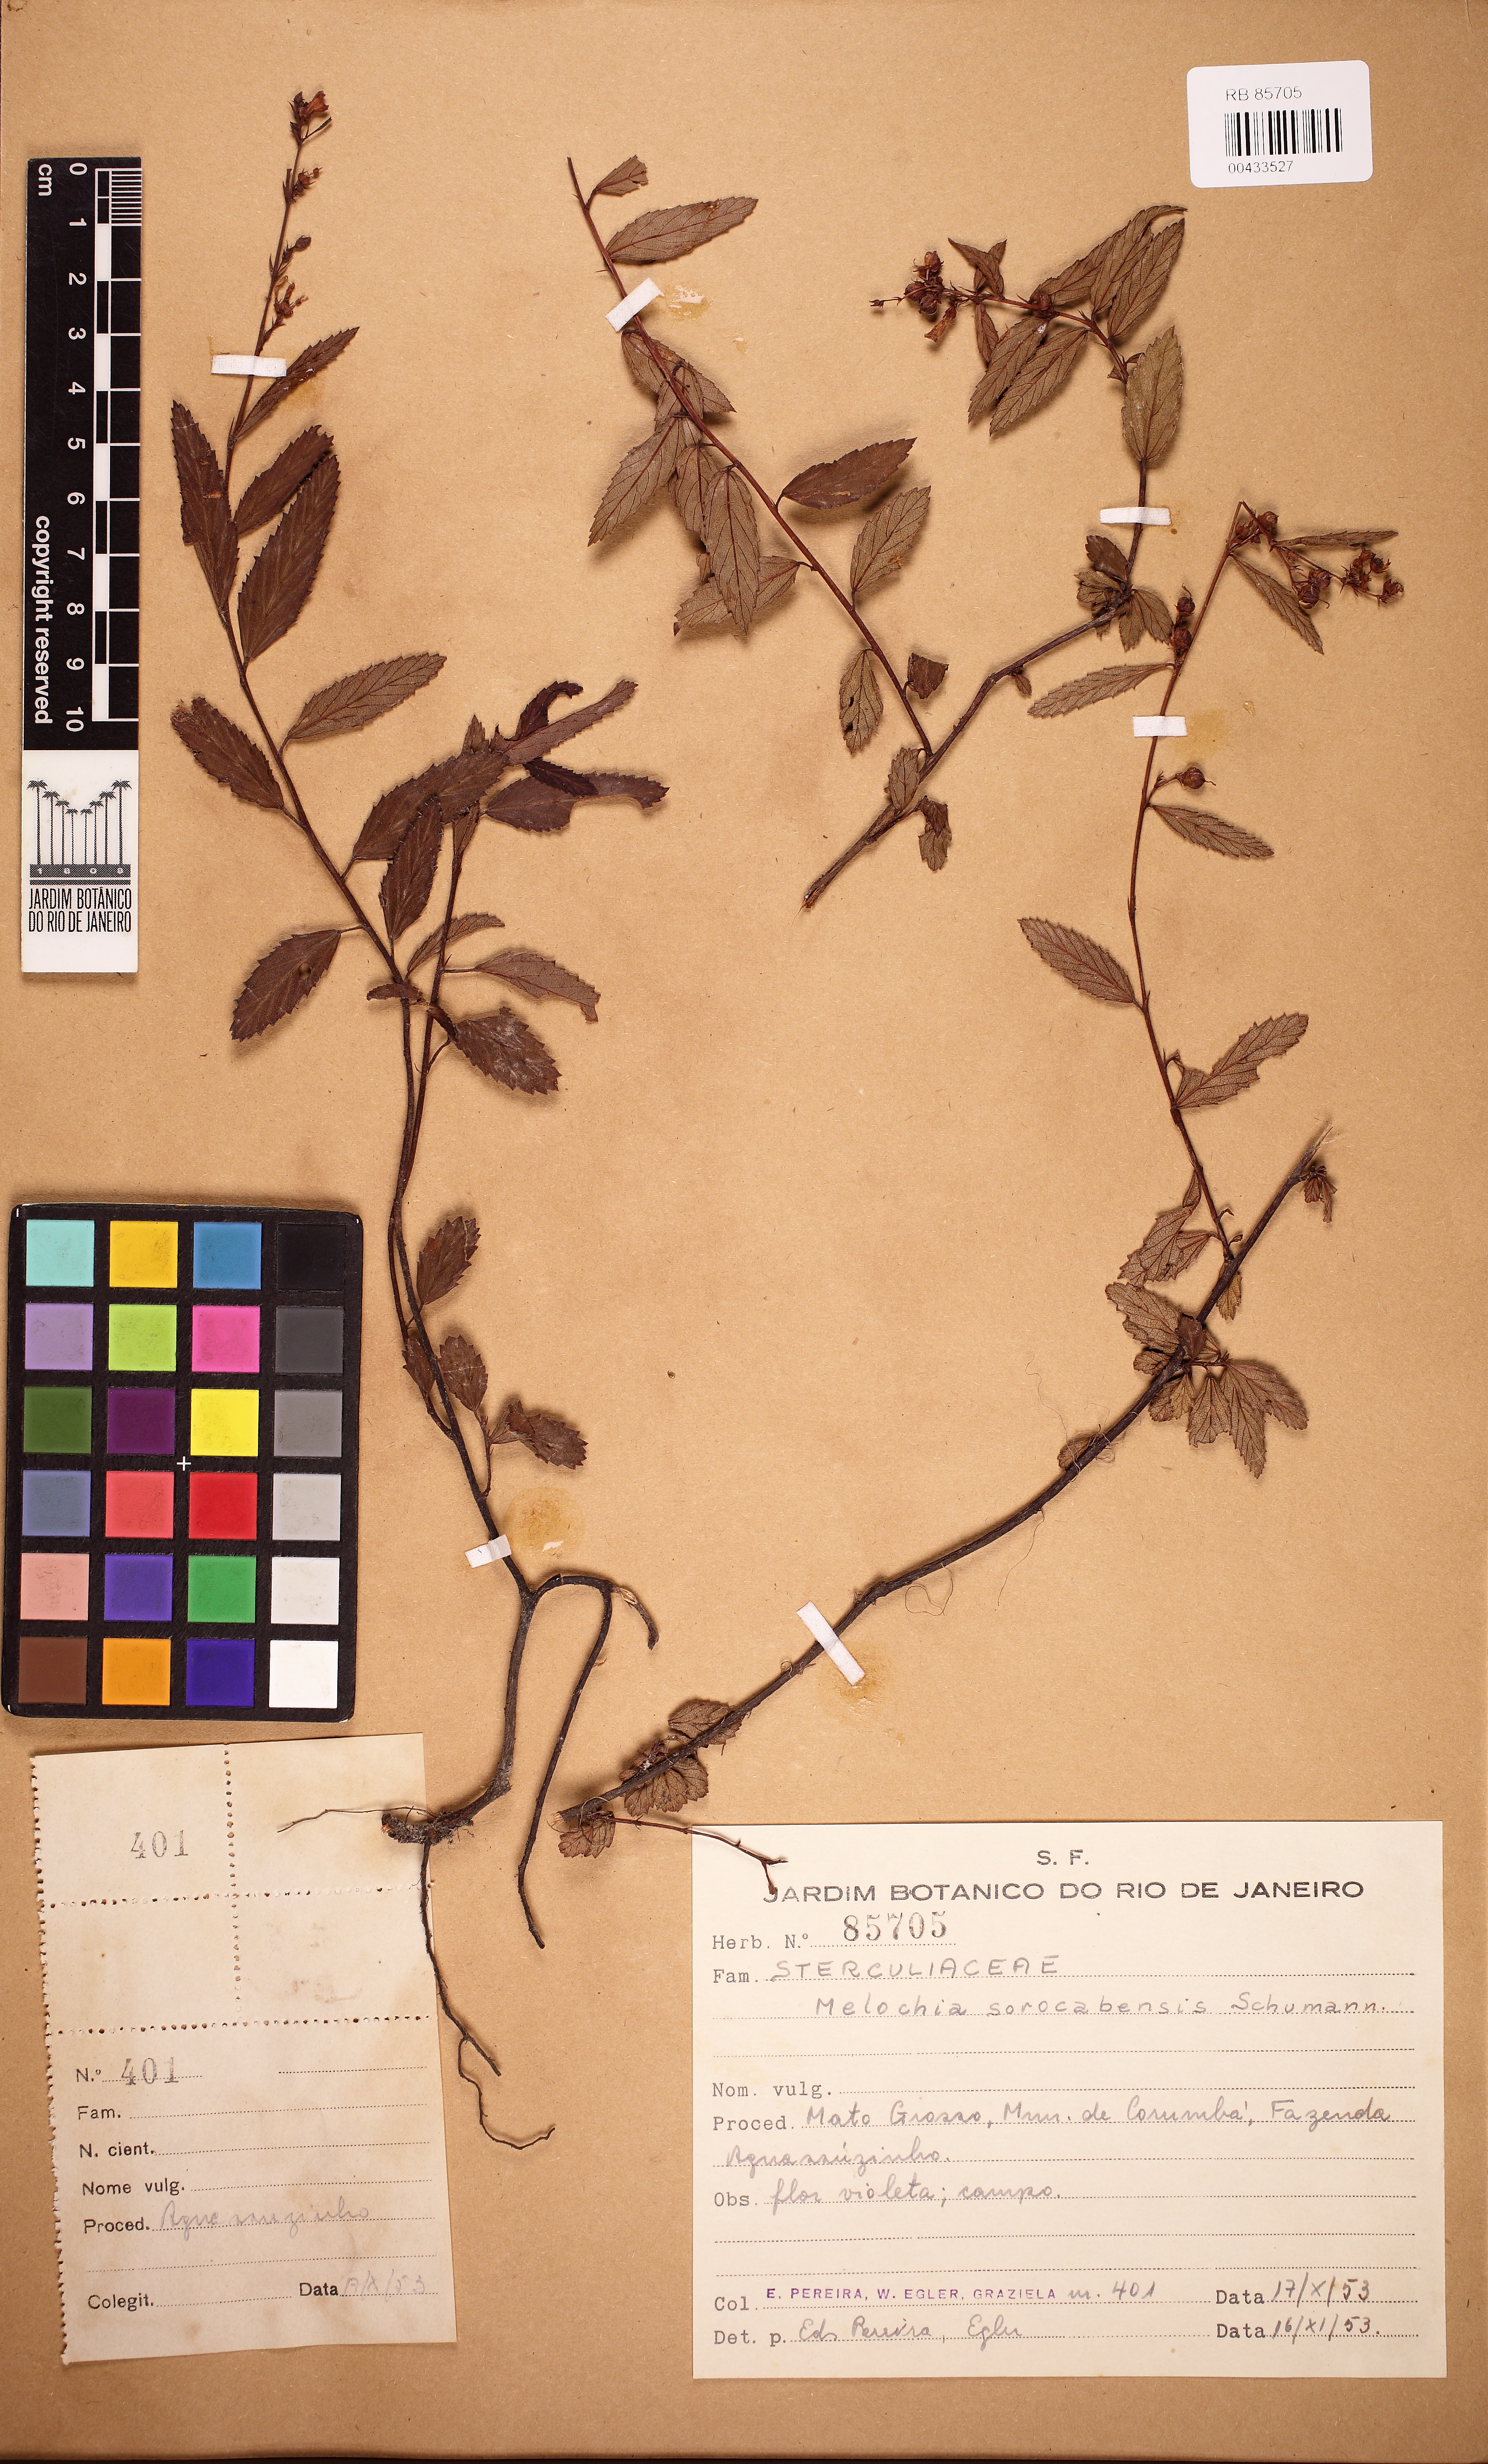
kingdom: Plantae
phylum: Tracheophyta
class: Magnoliopsida
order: Malvales
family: Malvaceae
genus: Melochia
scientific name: Melochia simplex
